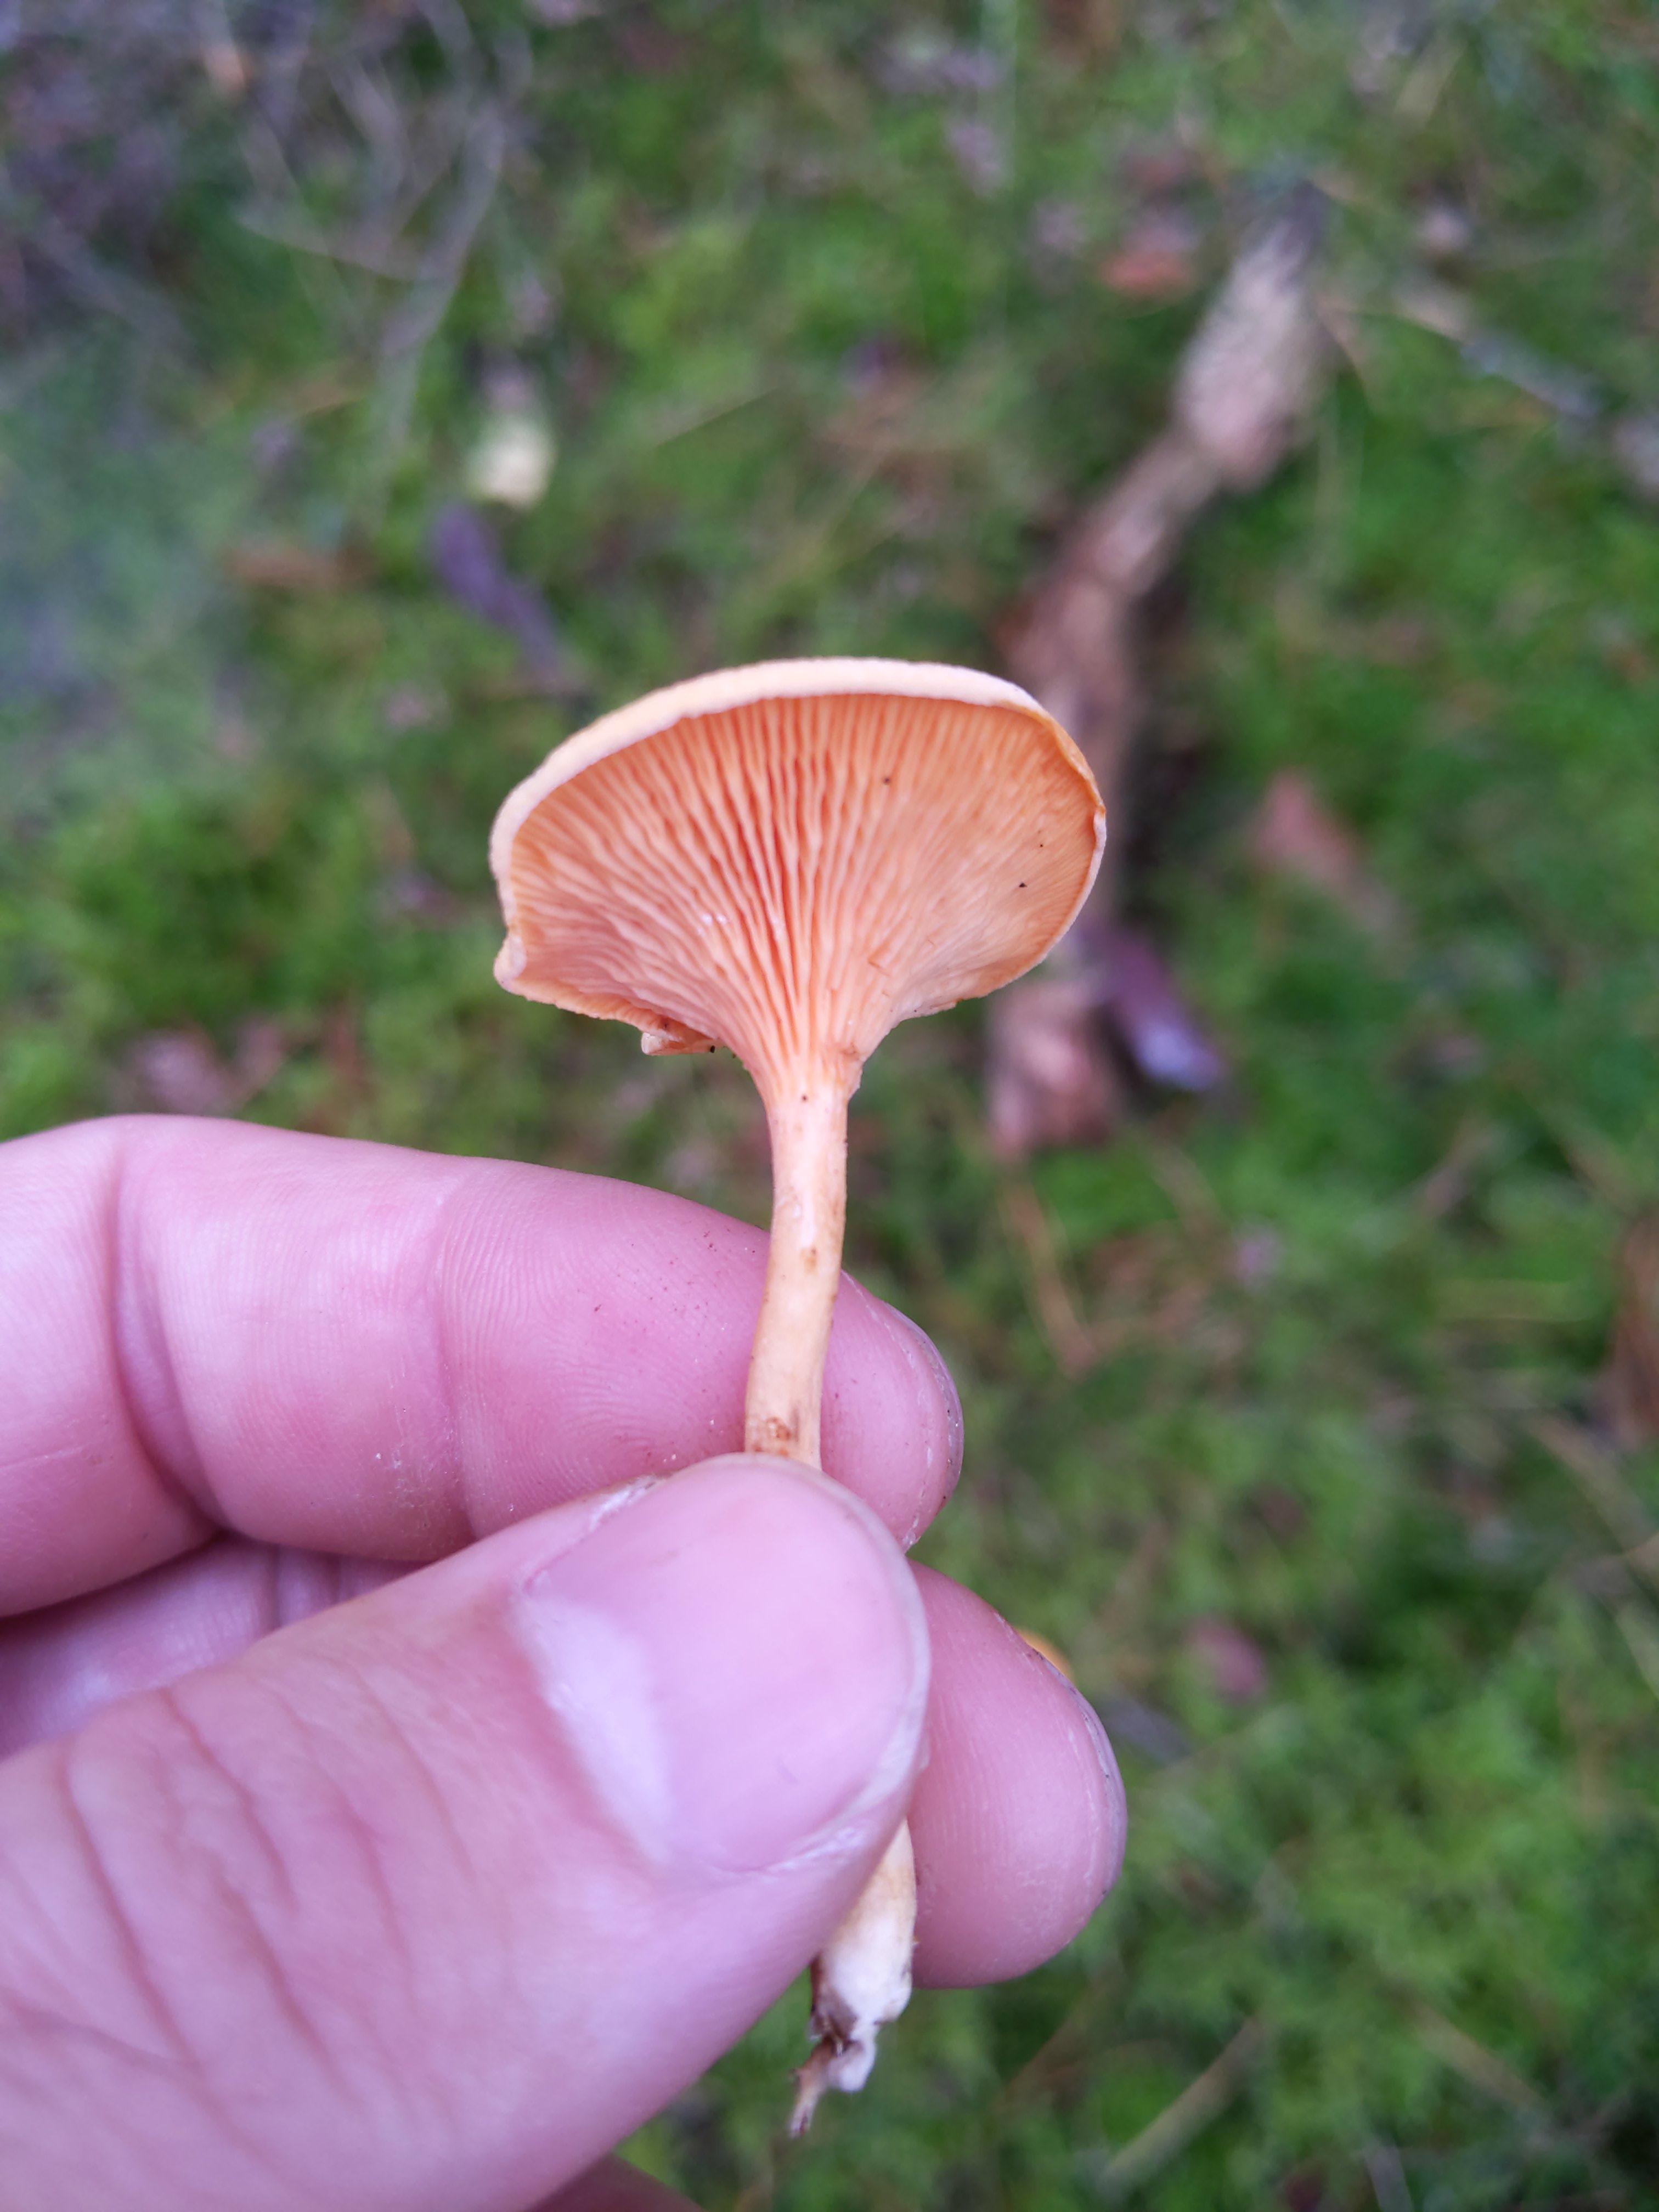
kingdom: Fungi
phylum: Basidiomycota
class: Agaricomycetes
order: Boletales
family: Hygrophoropsidaceae
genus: Hygrophoropsis
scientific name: Hygrophoropsis aurantiaca
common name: almindelig orangekantarel
